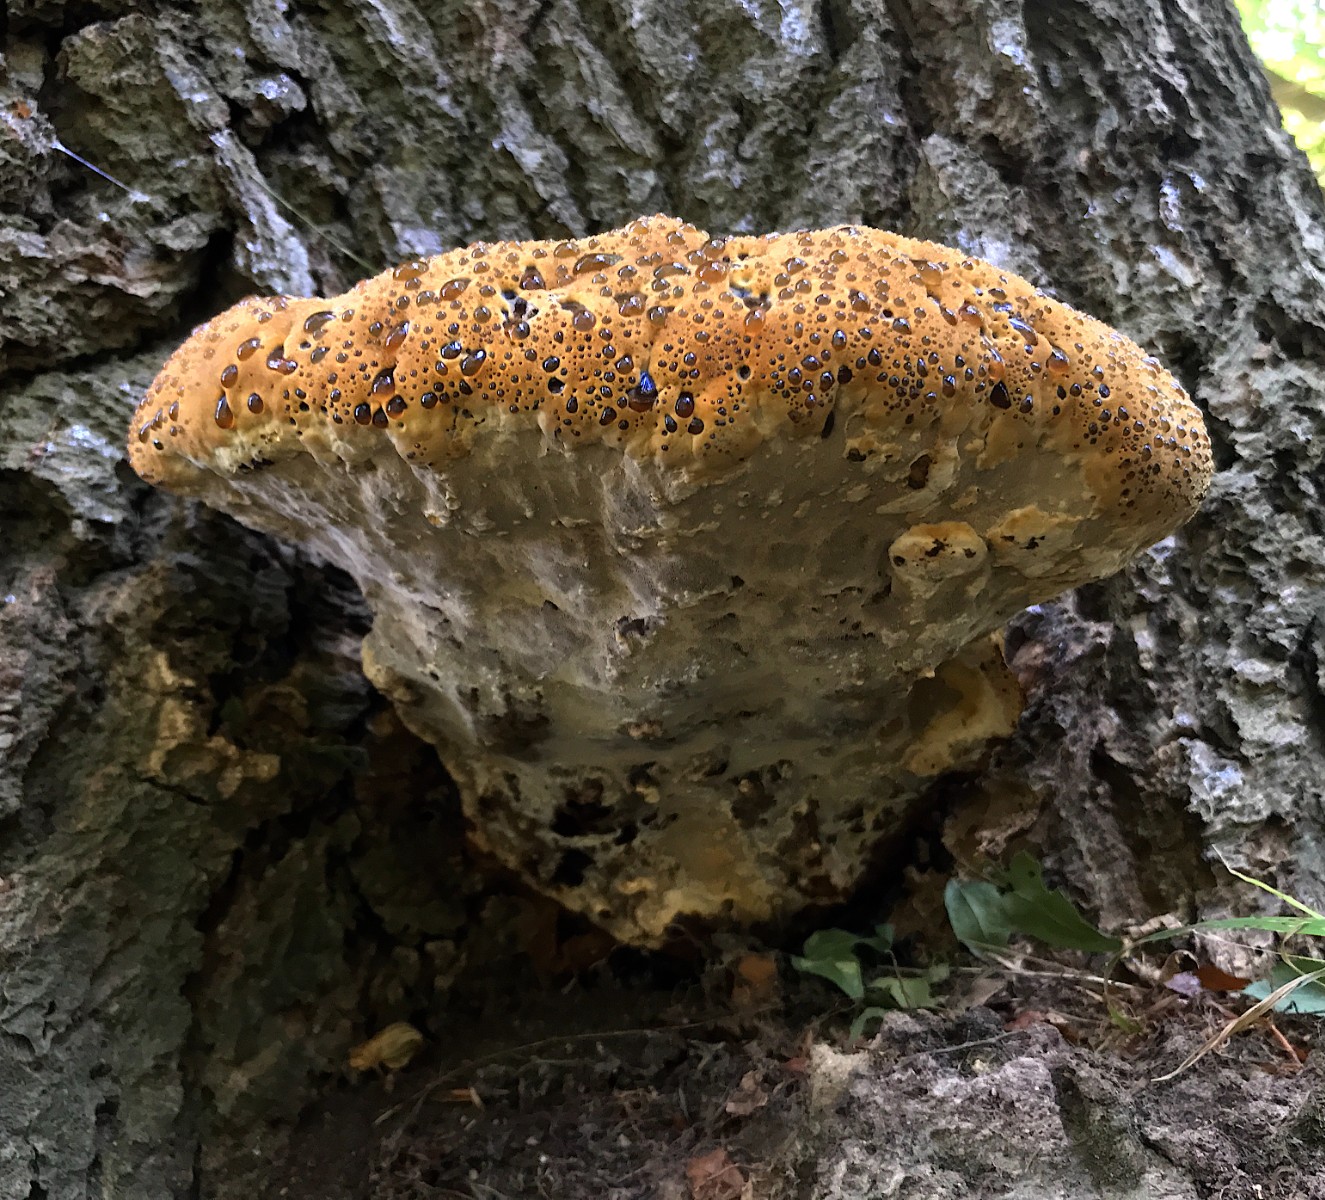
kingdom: Fungi
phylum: Basidiomycota
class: Agaricomycetes
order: Hymenochaetales
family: Hymenochaetaceae
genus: Pseudoinonotus
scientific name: Pseudoinonotus dryadeus
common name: ege-spejlporesvamp
